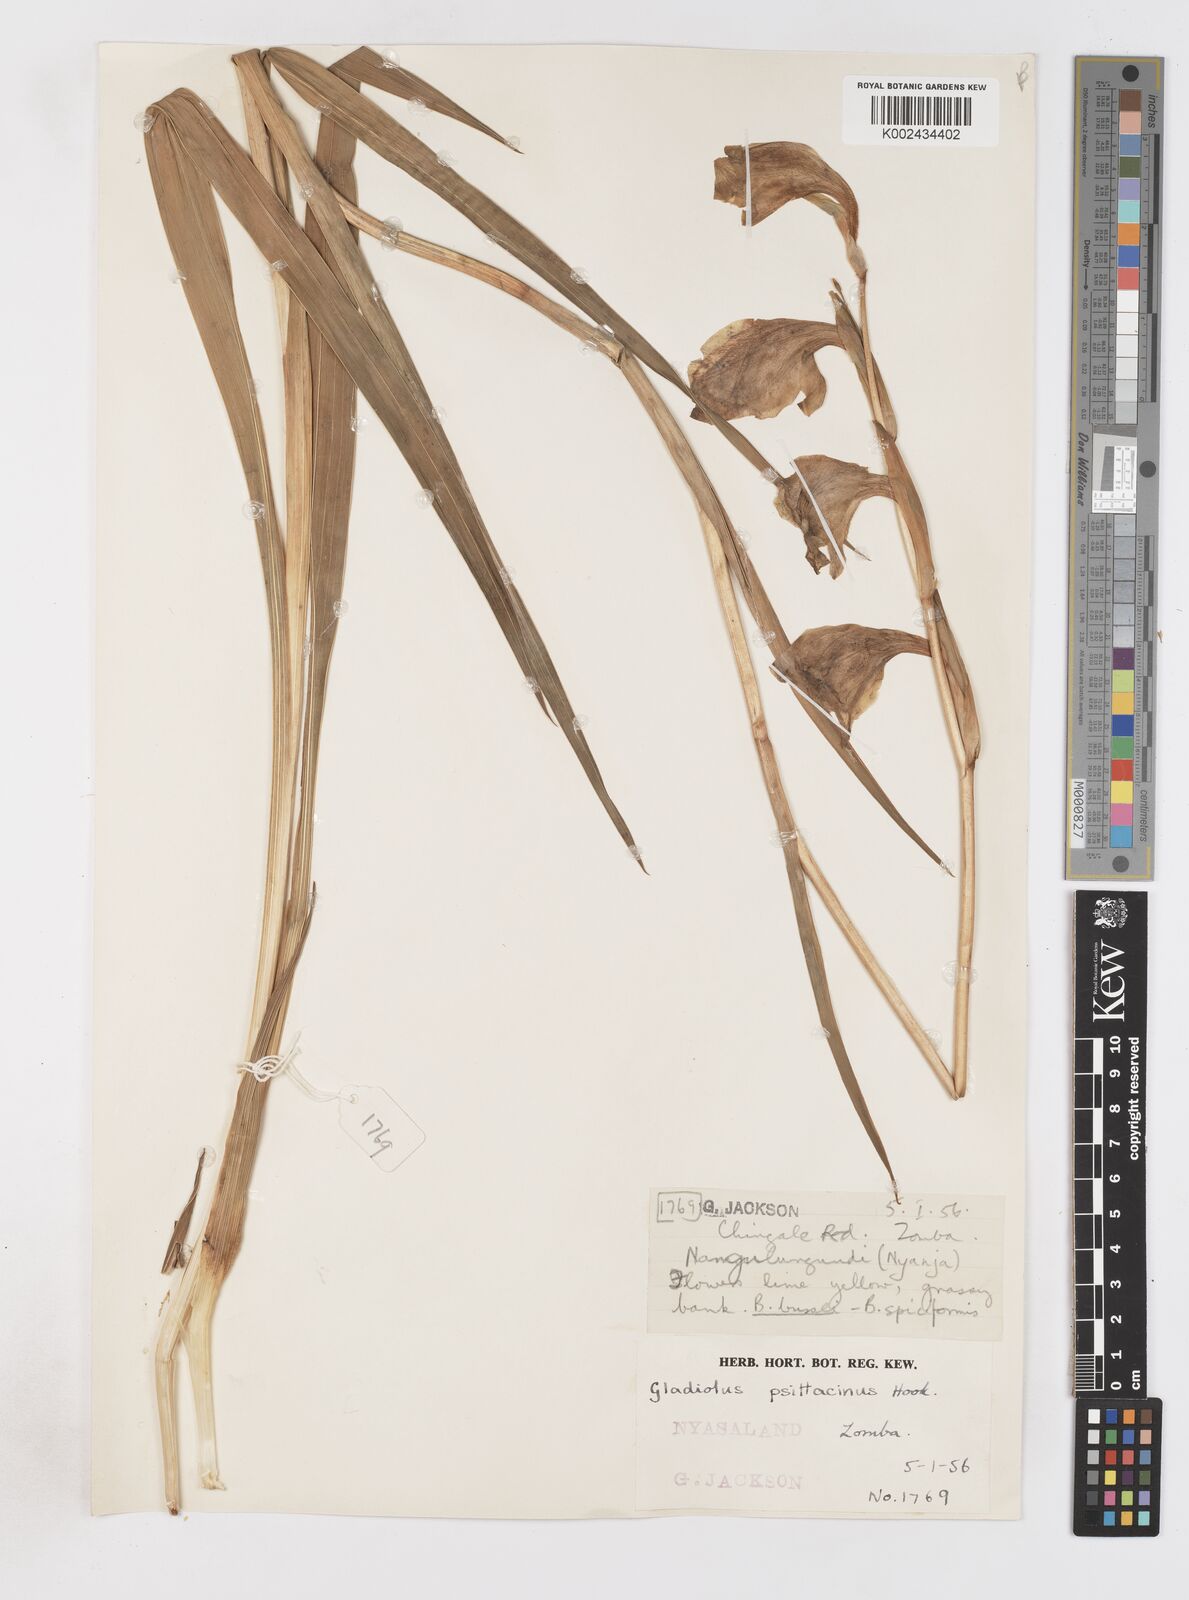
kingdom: Plantae
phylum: Tracheophyta
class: Liliopsida
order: Asparagales
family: Iridaceae
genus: Gladiolus
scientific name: Gladiolus dalenii
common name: Cornflag
